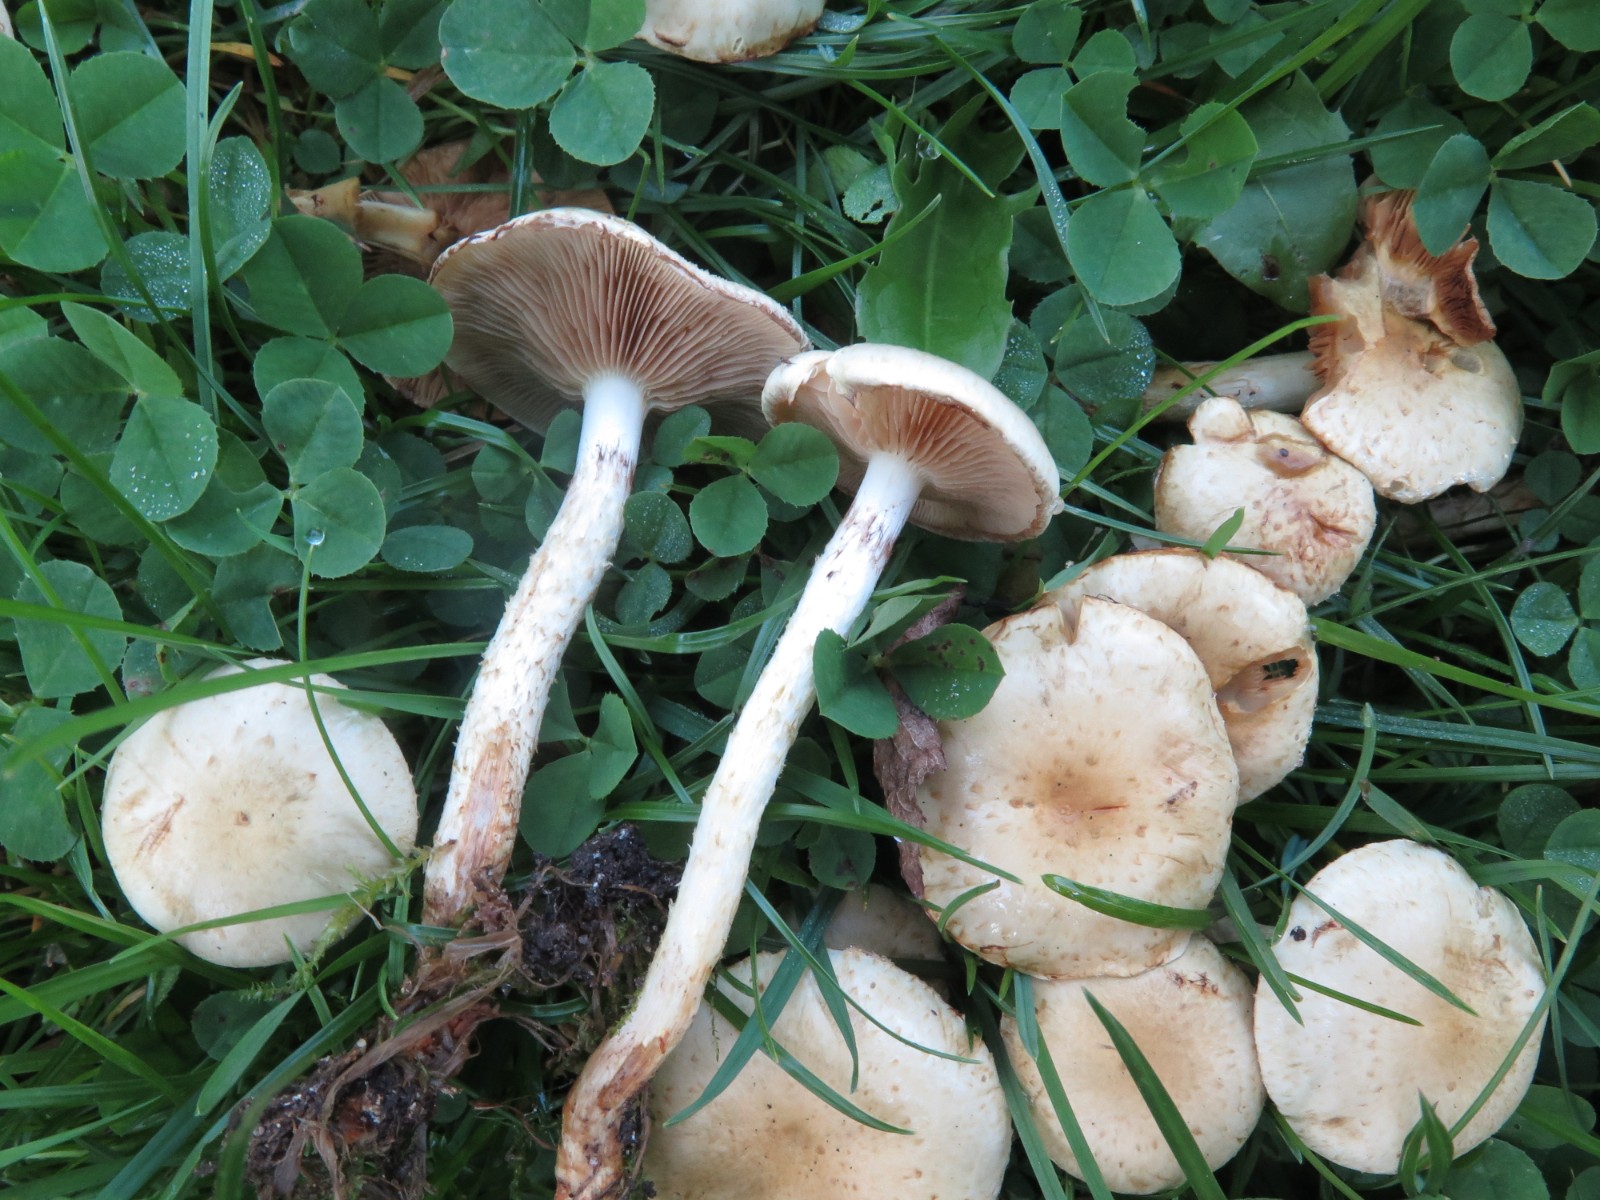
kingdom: Fungi
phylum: Basidiomycota
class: Agaricomycetes
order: Agaricales
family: Strophariaceae
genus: Pholiota
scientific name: Pholiota gummosa
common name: grøngul skælhat
